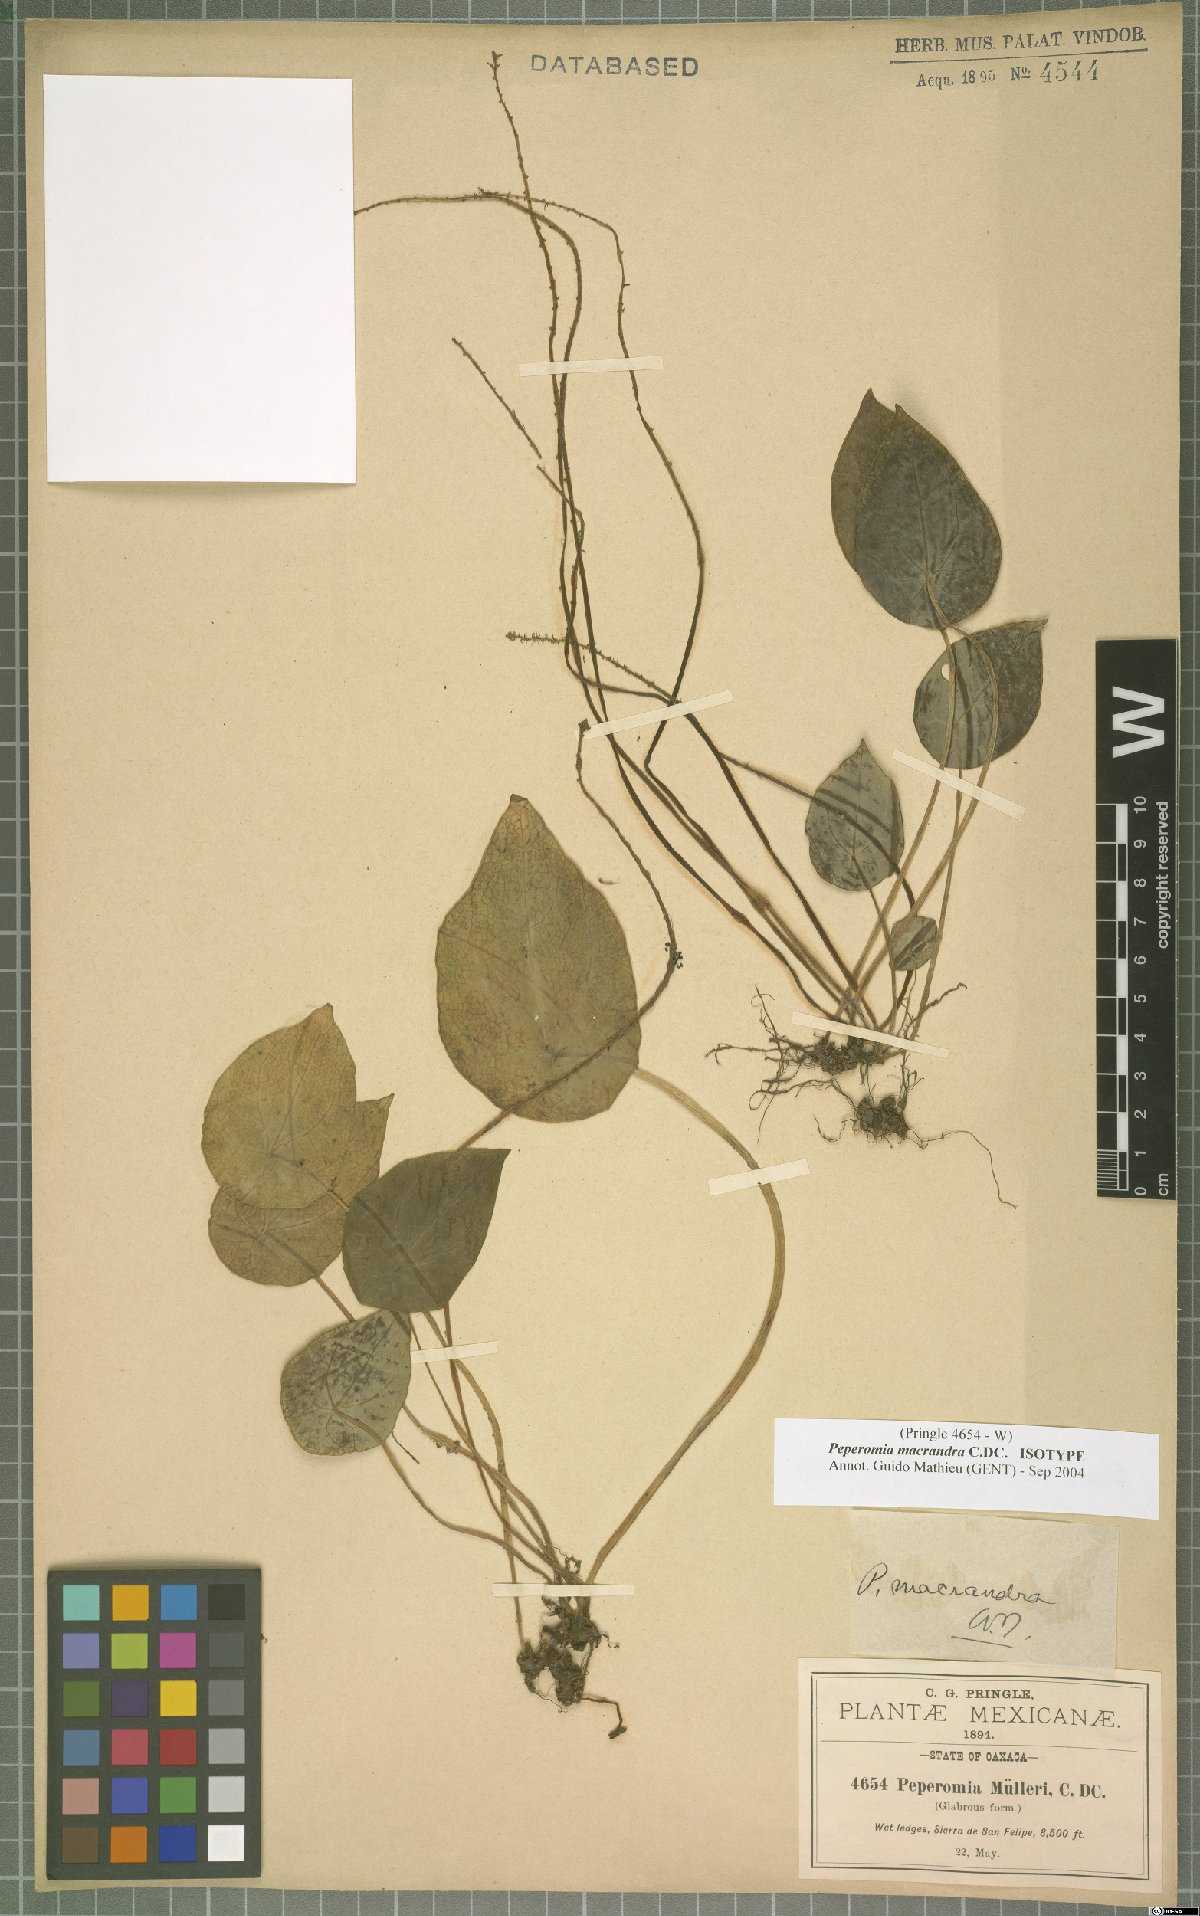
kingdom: Plantae
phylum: Tracheophyta
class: Magnoliopsida
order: Piperales
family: Piperaceae
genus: Peperomia
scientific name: Peperomia macrandra
